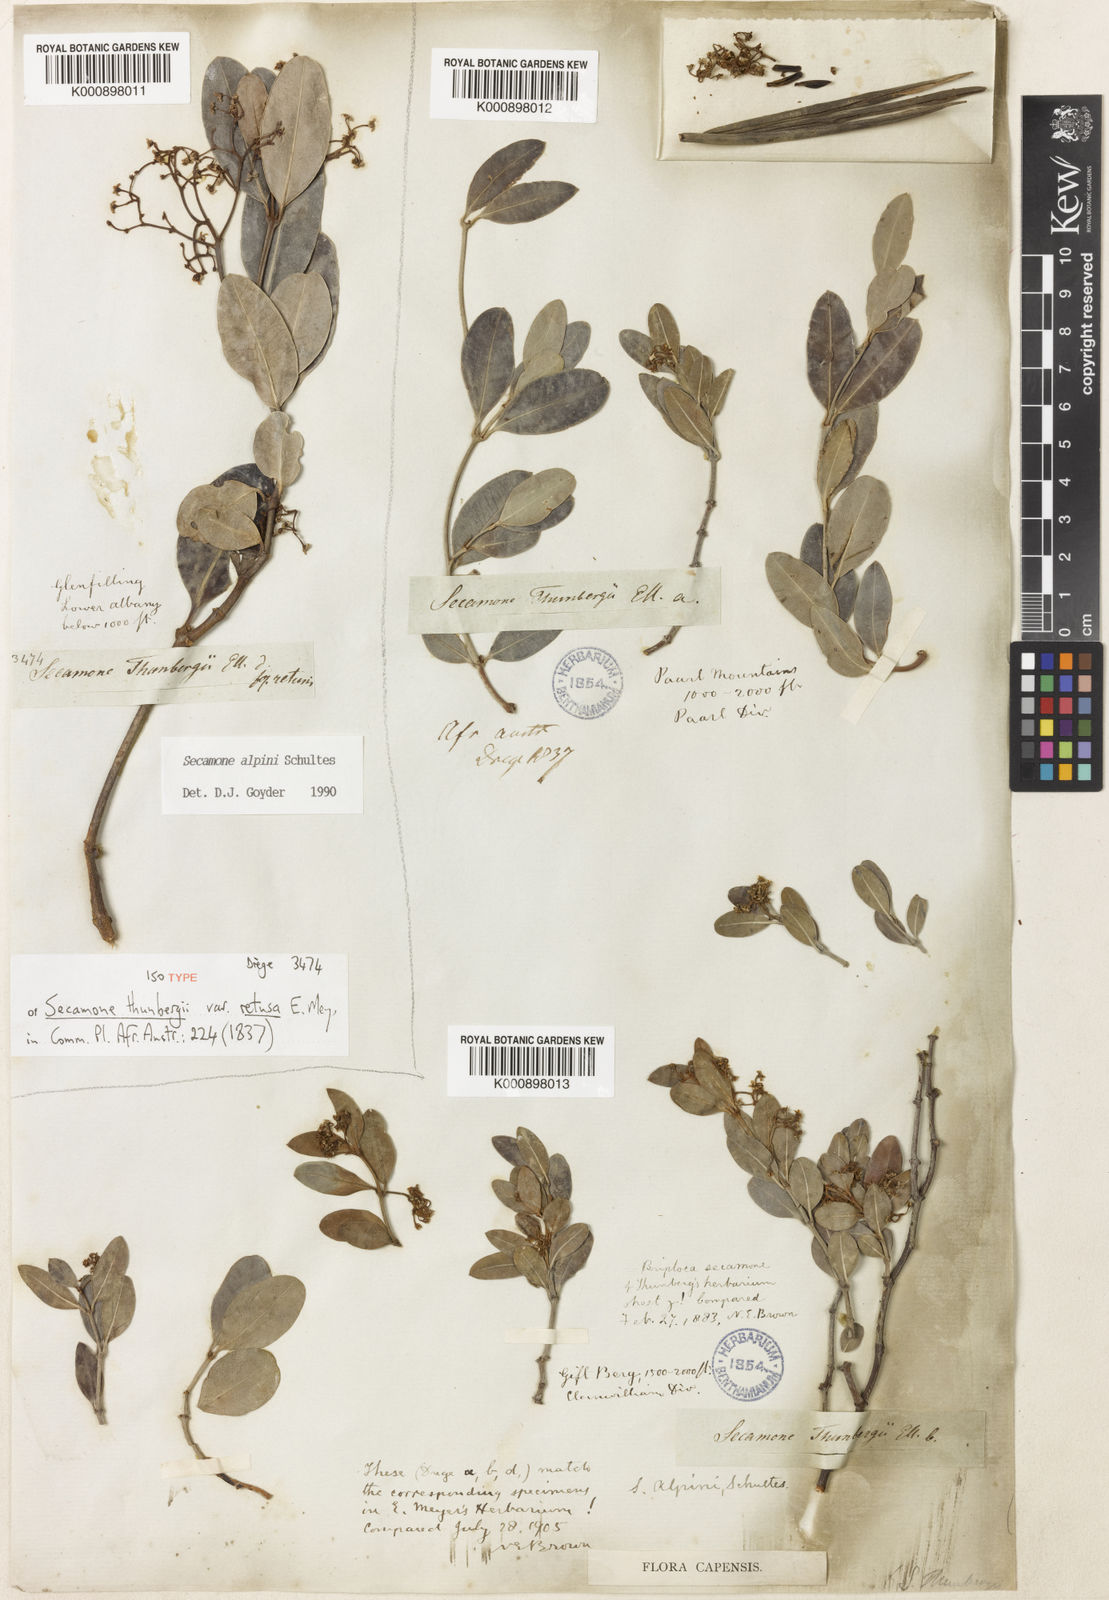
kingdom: Plantae
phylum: Tracheophyta
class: Magnoliopsida
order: Gentianales
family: Apocynaceae
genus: Secamone
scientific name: Secamone alpini
